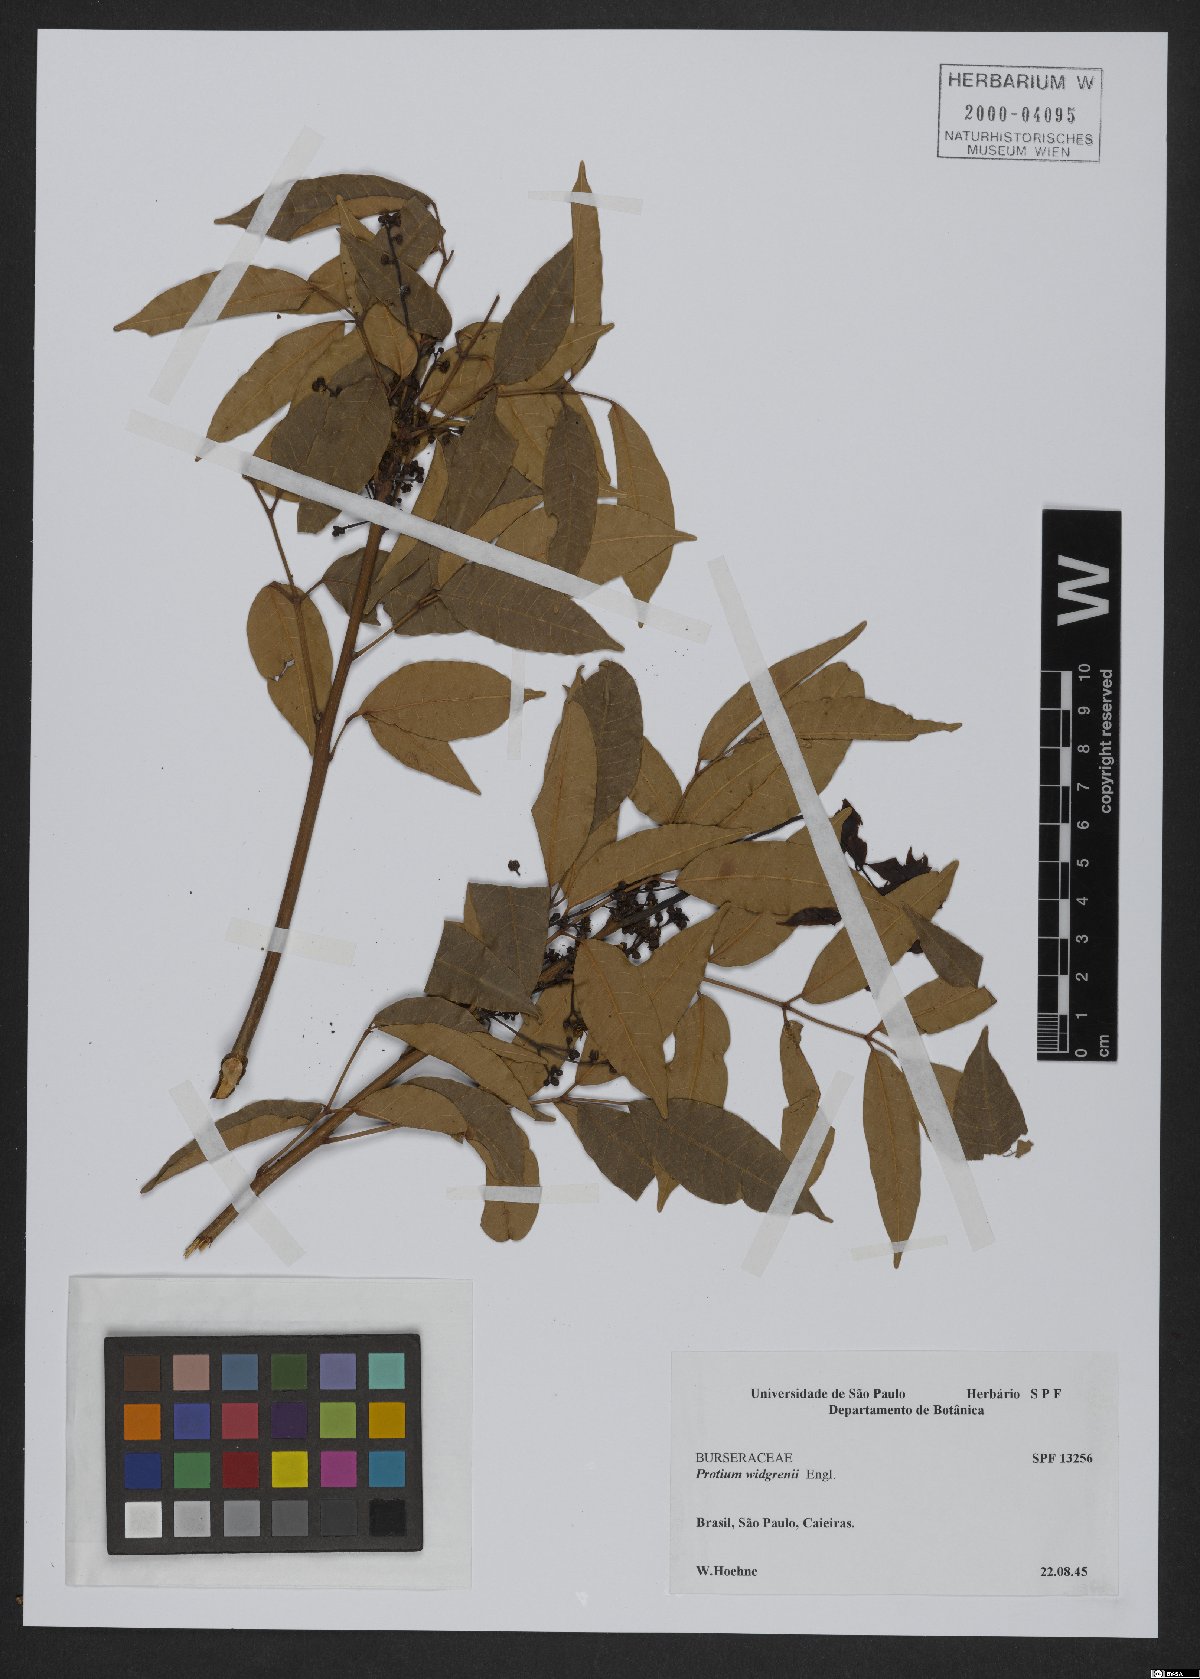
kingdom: Plantae
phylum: Tracheophyta
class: Magnoliopsida
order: Sapindales
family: Burseraceae
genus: Protium
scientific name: Protium widgrenii
